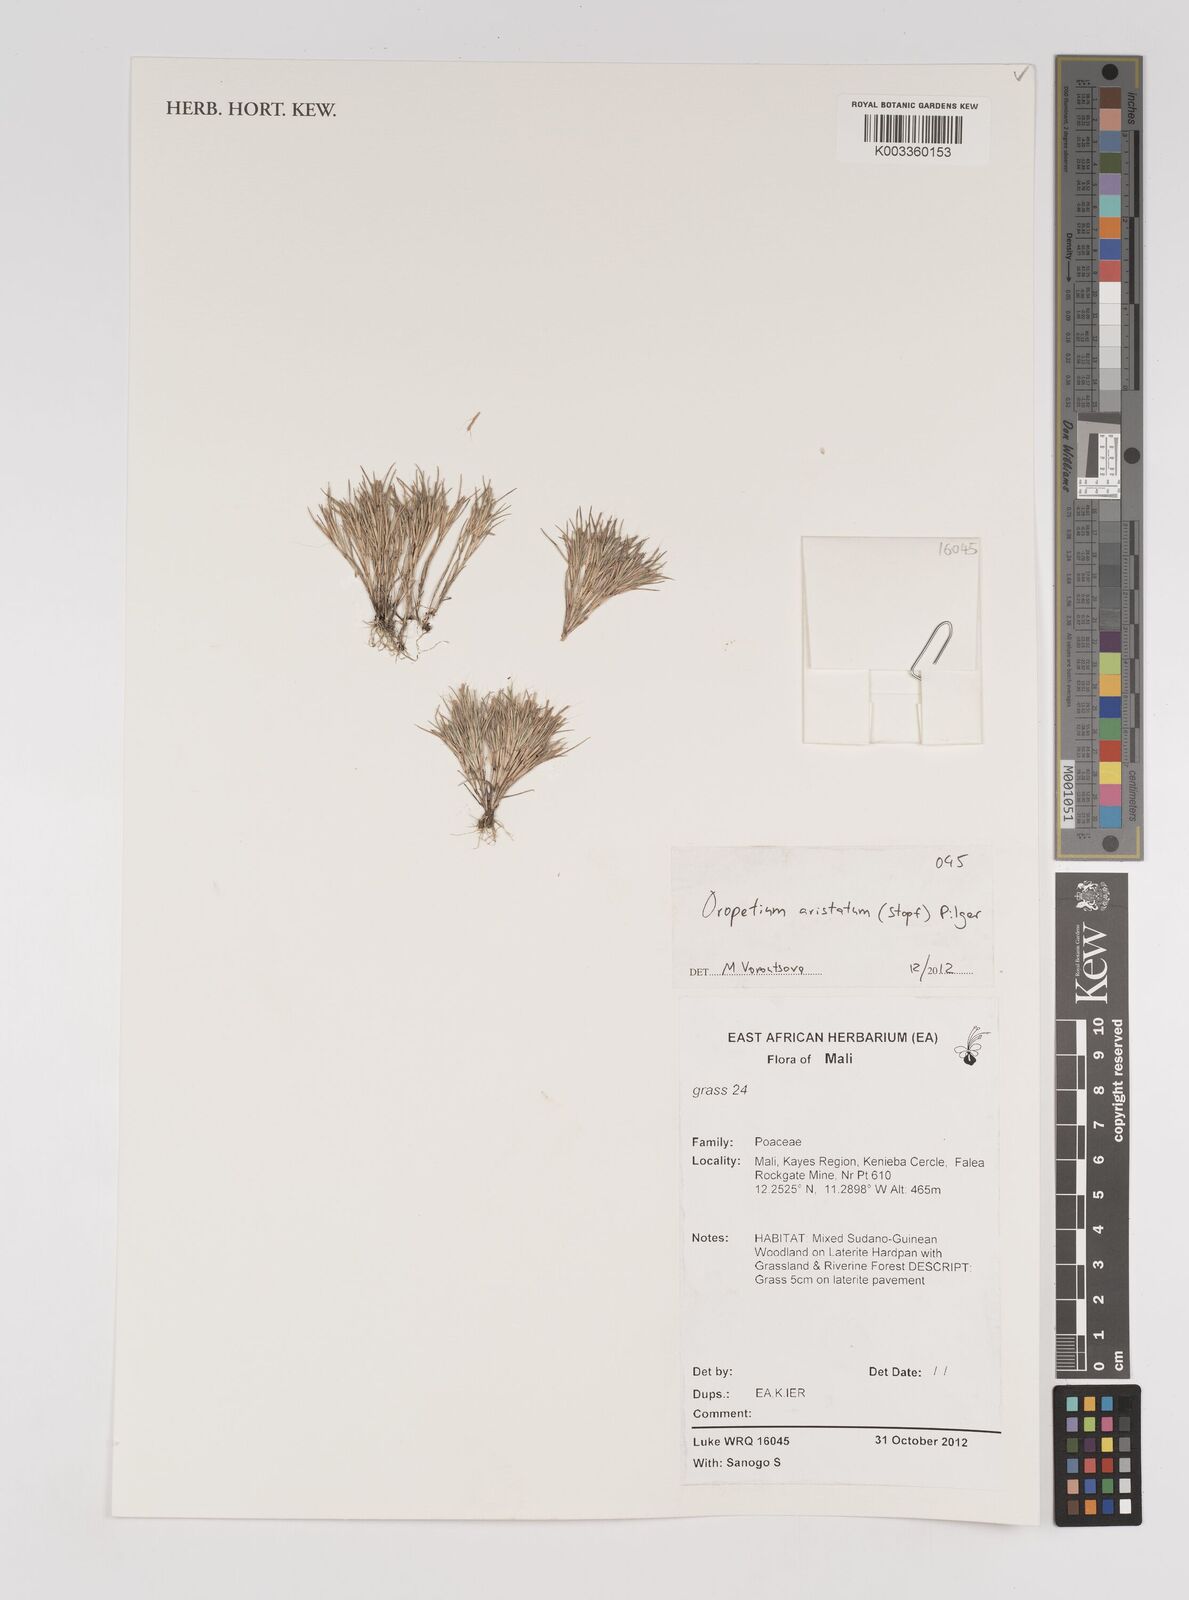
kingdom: Plantae
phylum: Tracheophyta
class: Liliopsida
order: Poales
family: Poaceae
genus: Oropetium
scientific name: Oropetium aristatum
